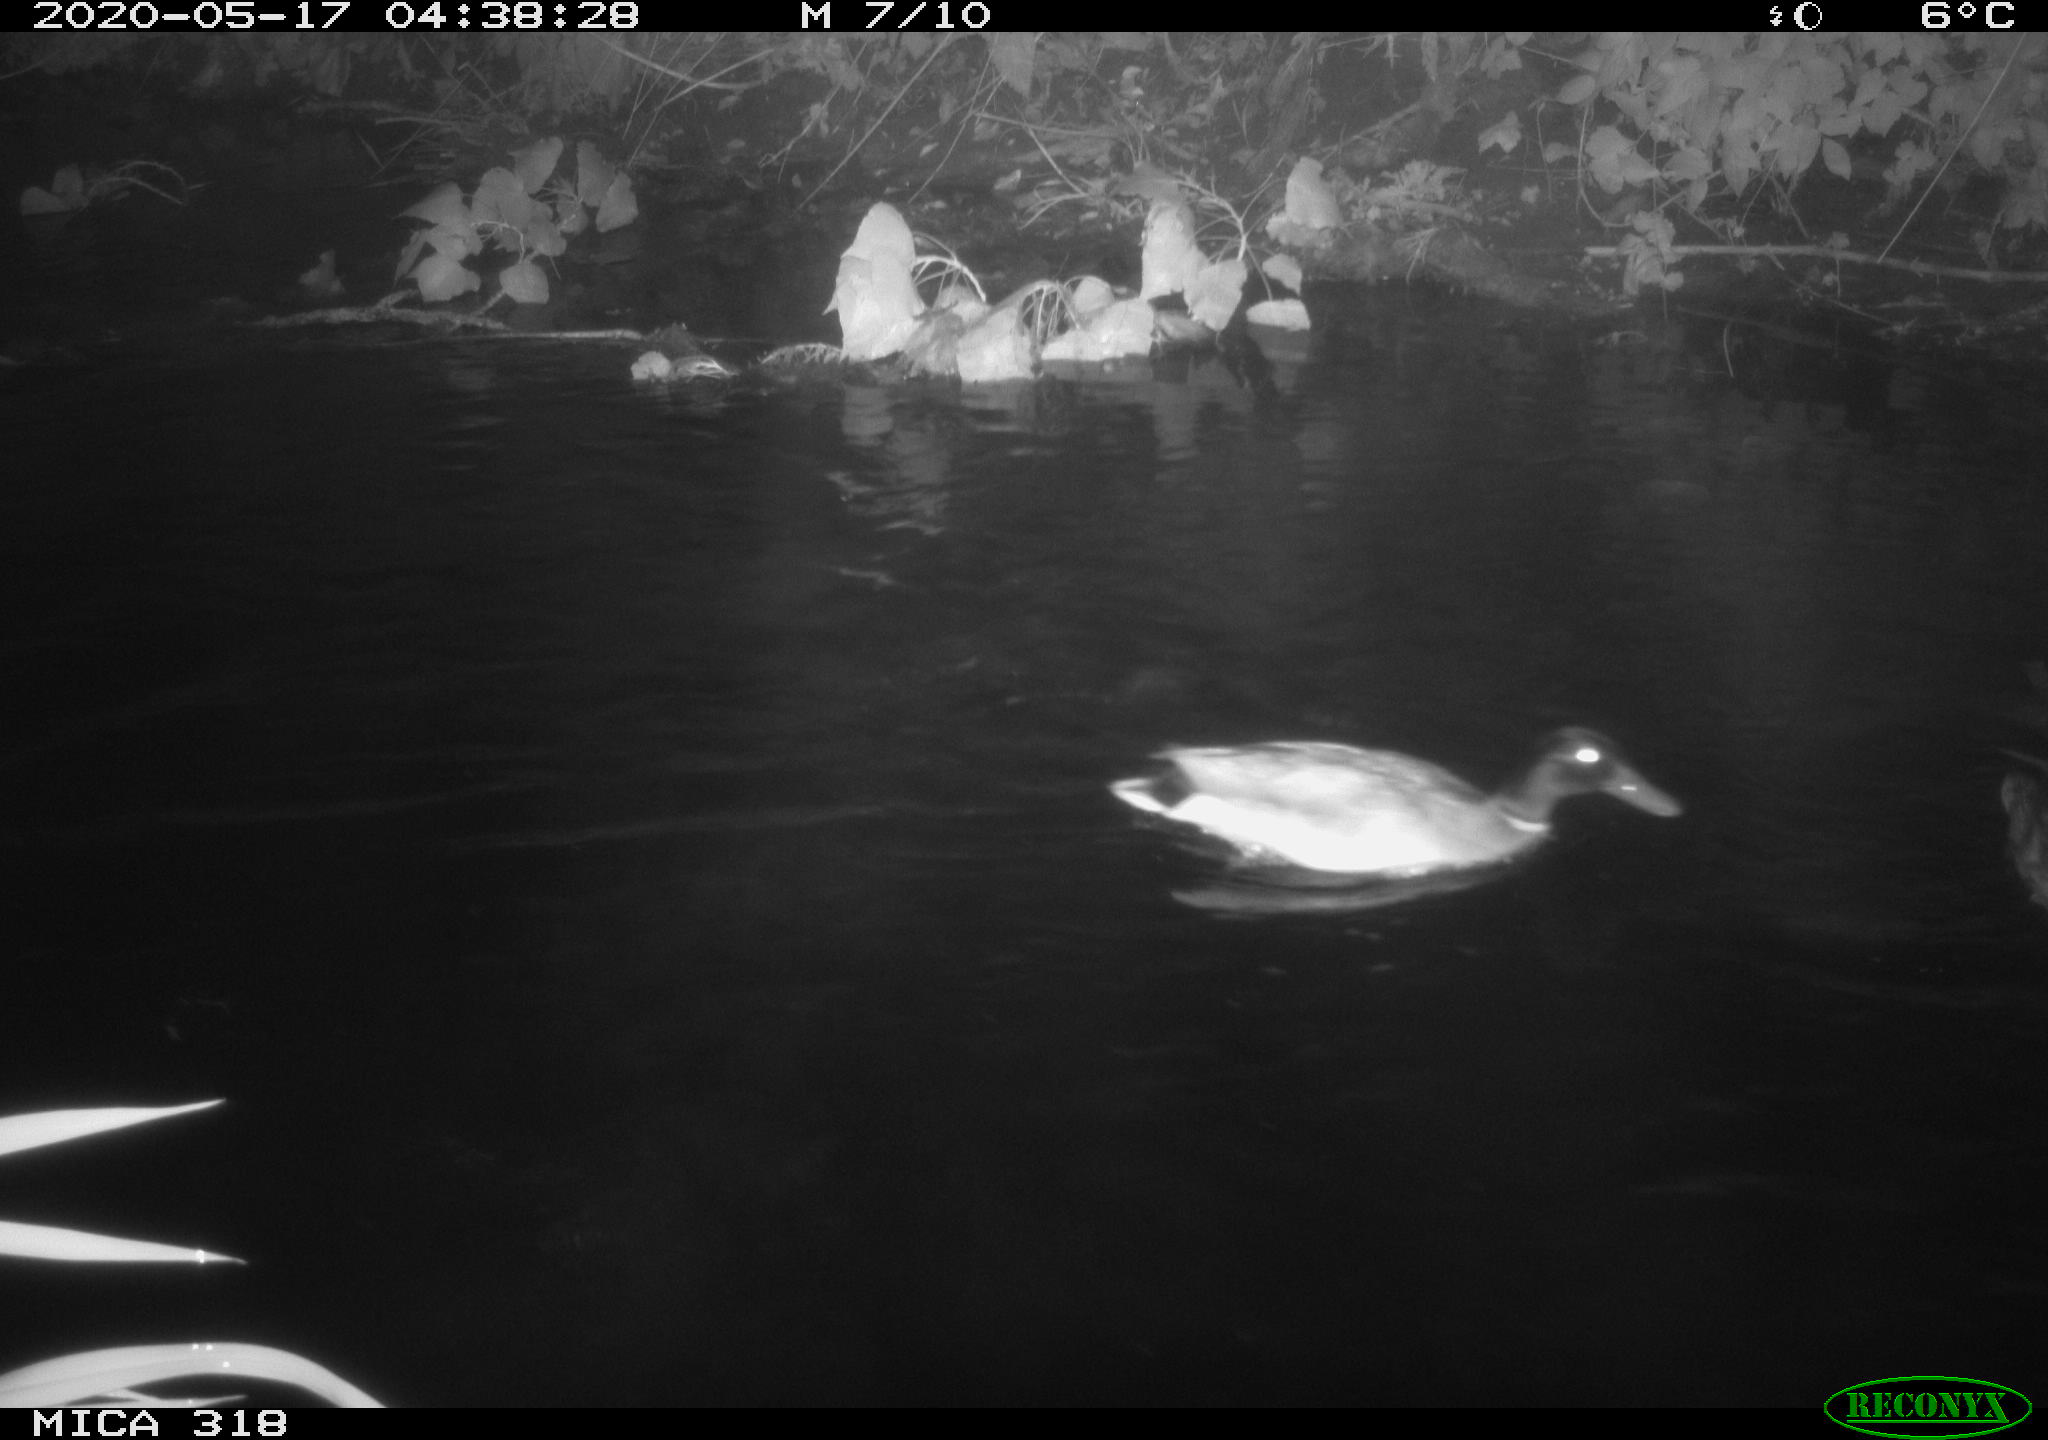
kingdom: Animalia
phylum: Chordata
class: Aves
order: Pelecaniformes
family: Ardeidae
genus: Ardea
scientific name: Ardea cinerea
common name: Grey heron
